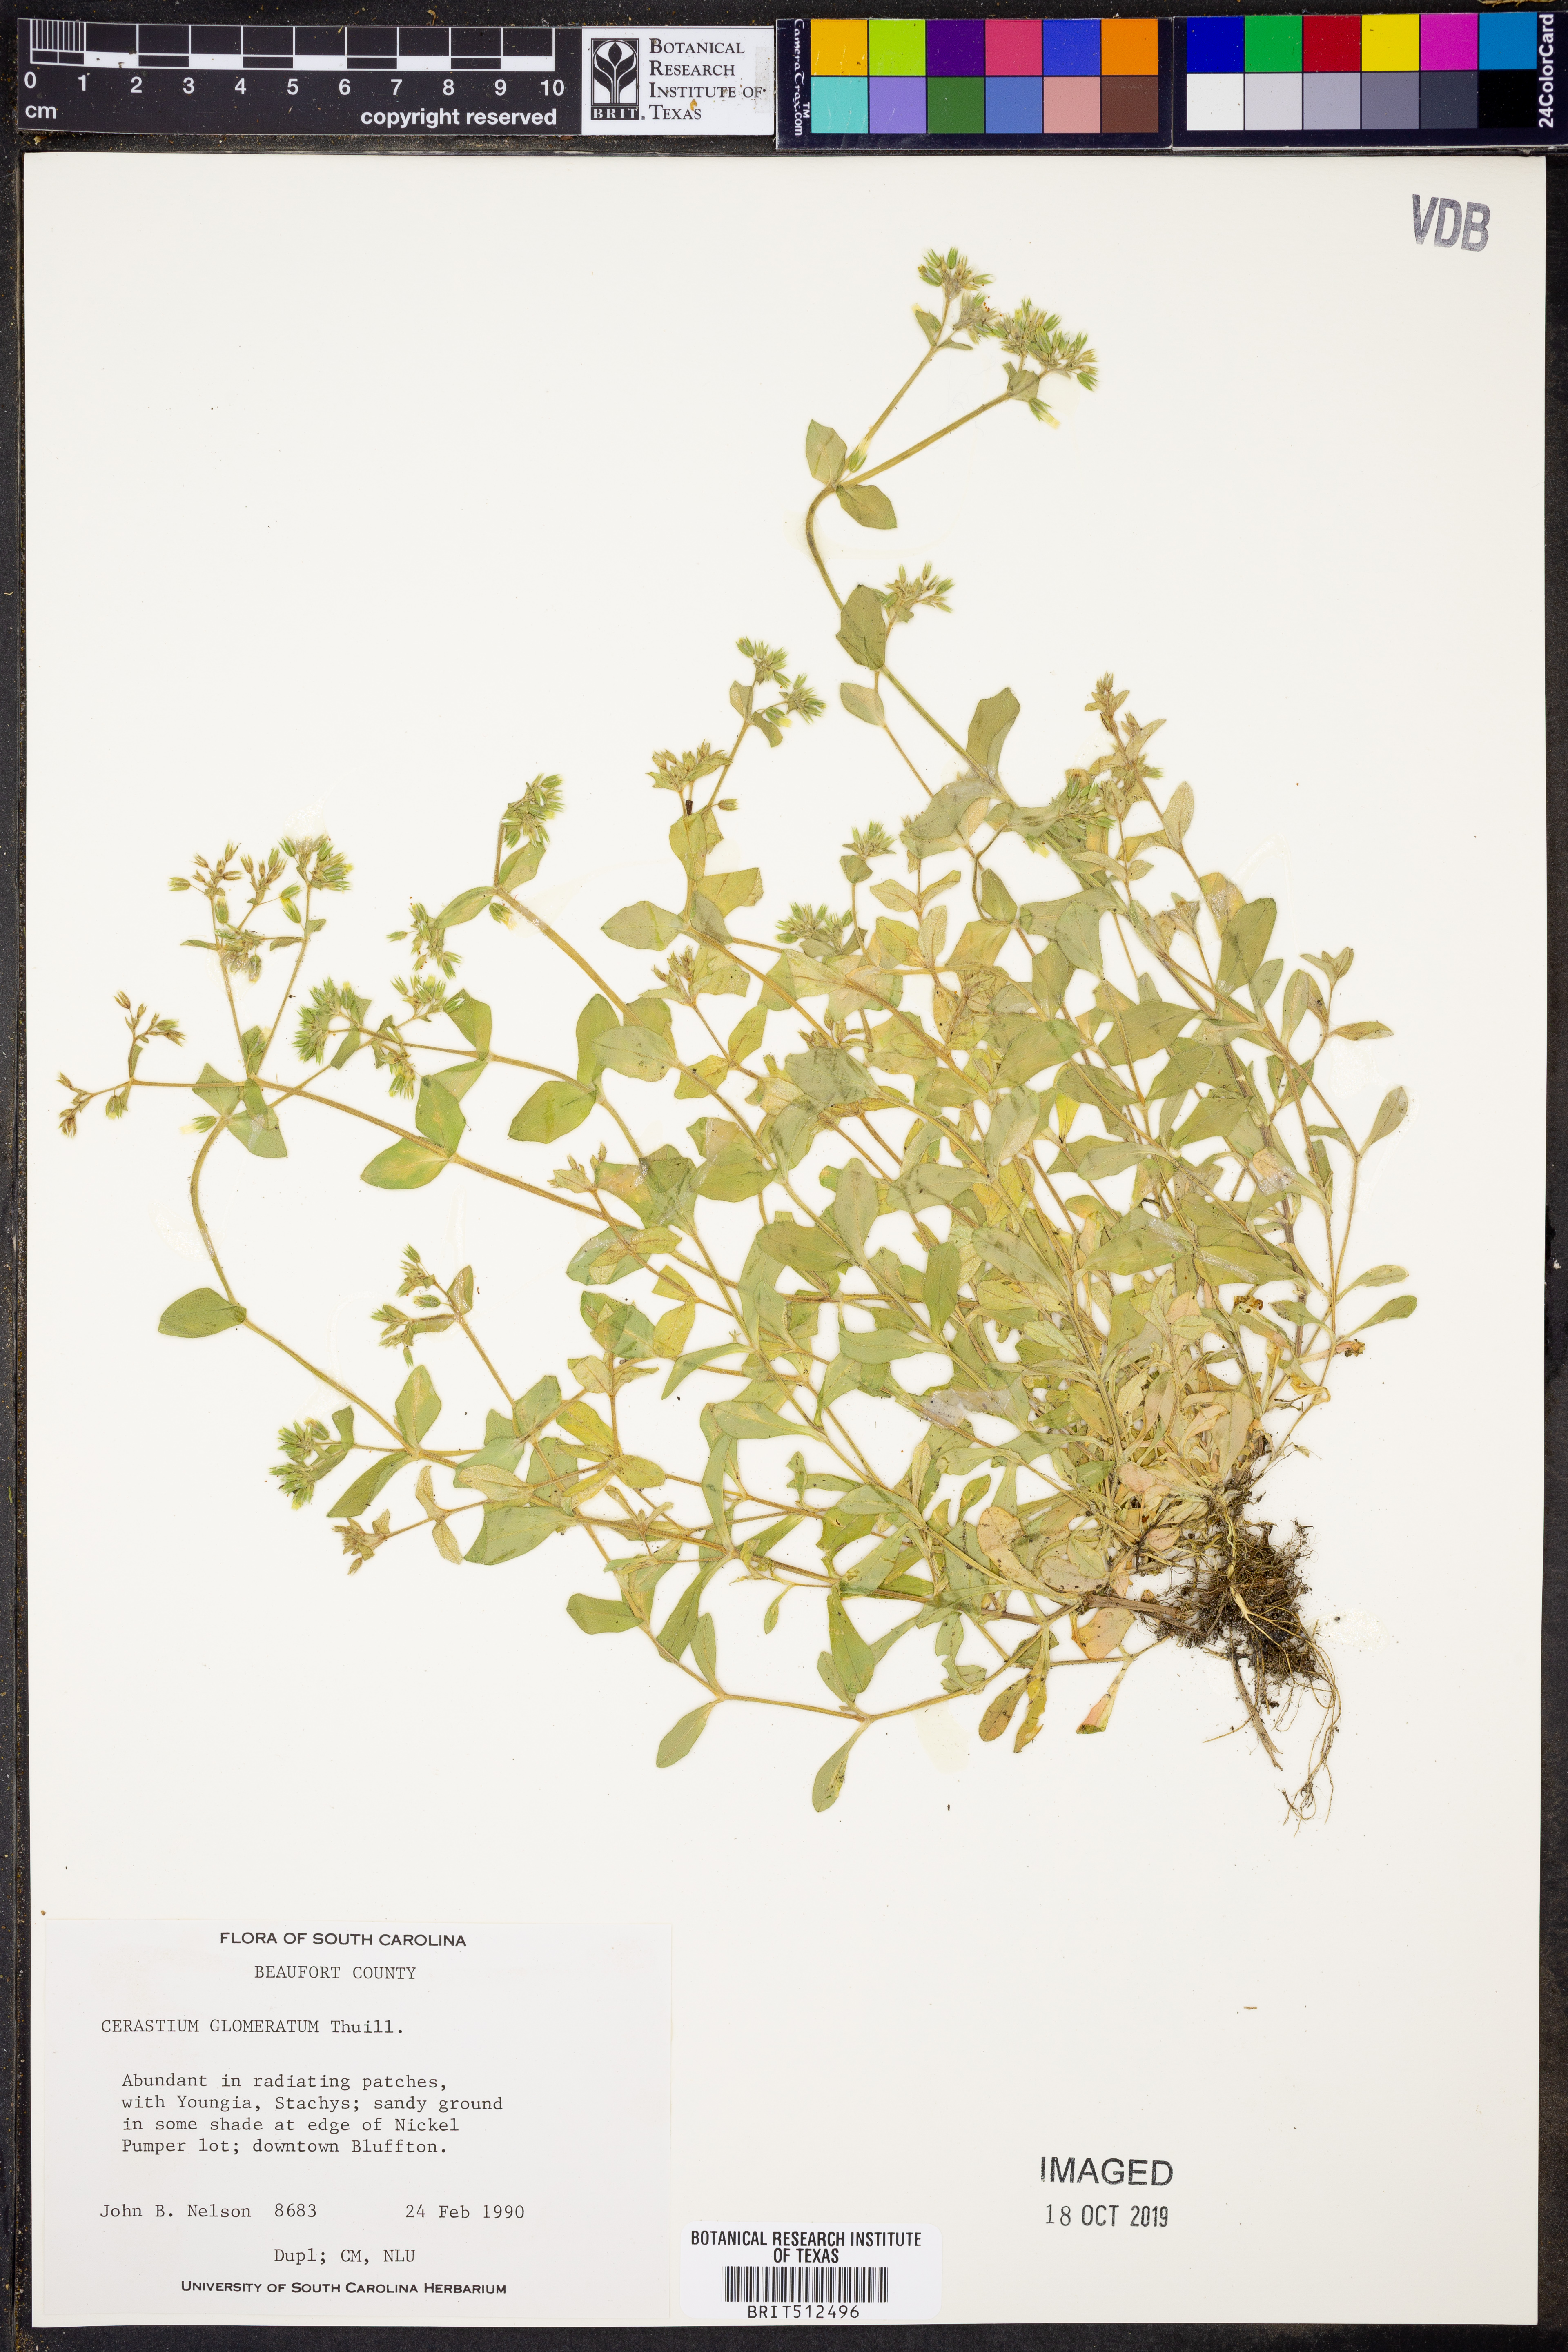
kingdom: Plantae
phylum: Tracheophyta
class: Magnoliopsida
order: Caryophyllales
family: Caryophyllaceae
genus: Cerastium
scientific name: Cerastium glomeratum
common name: Sticky chickweed
